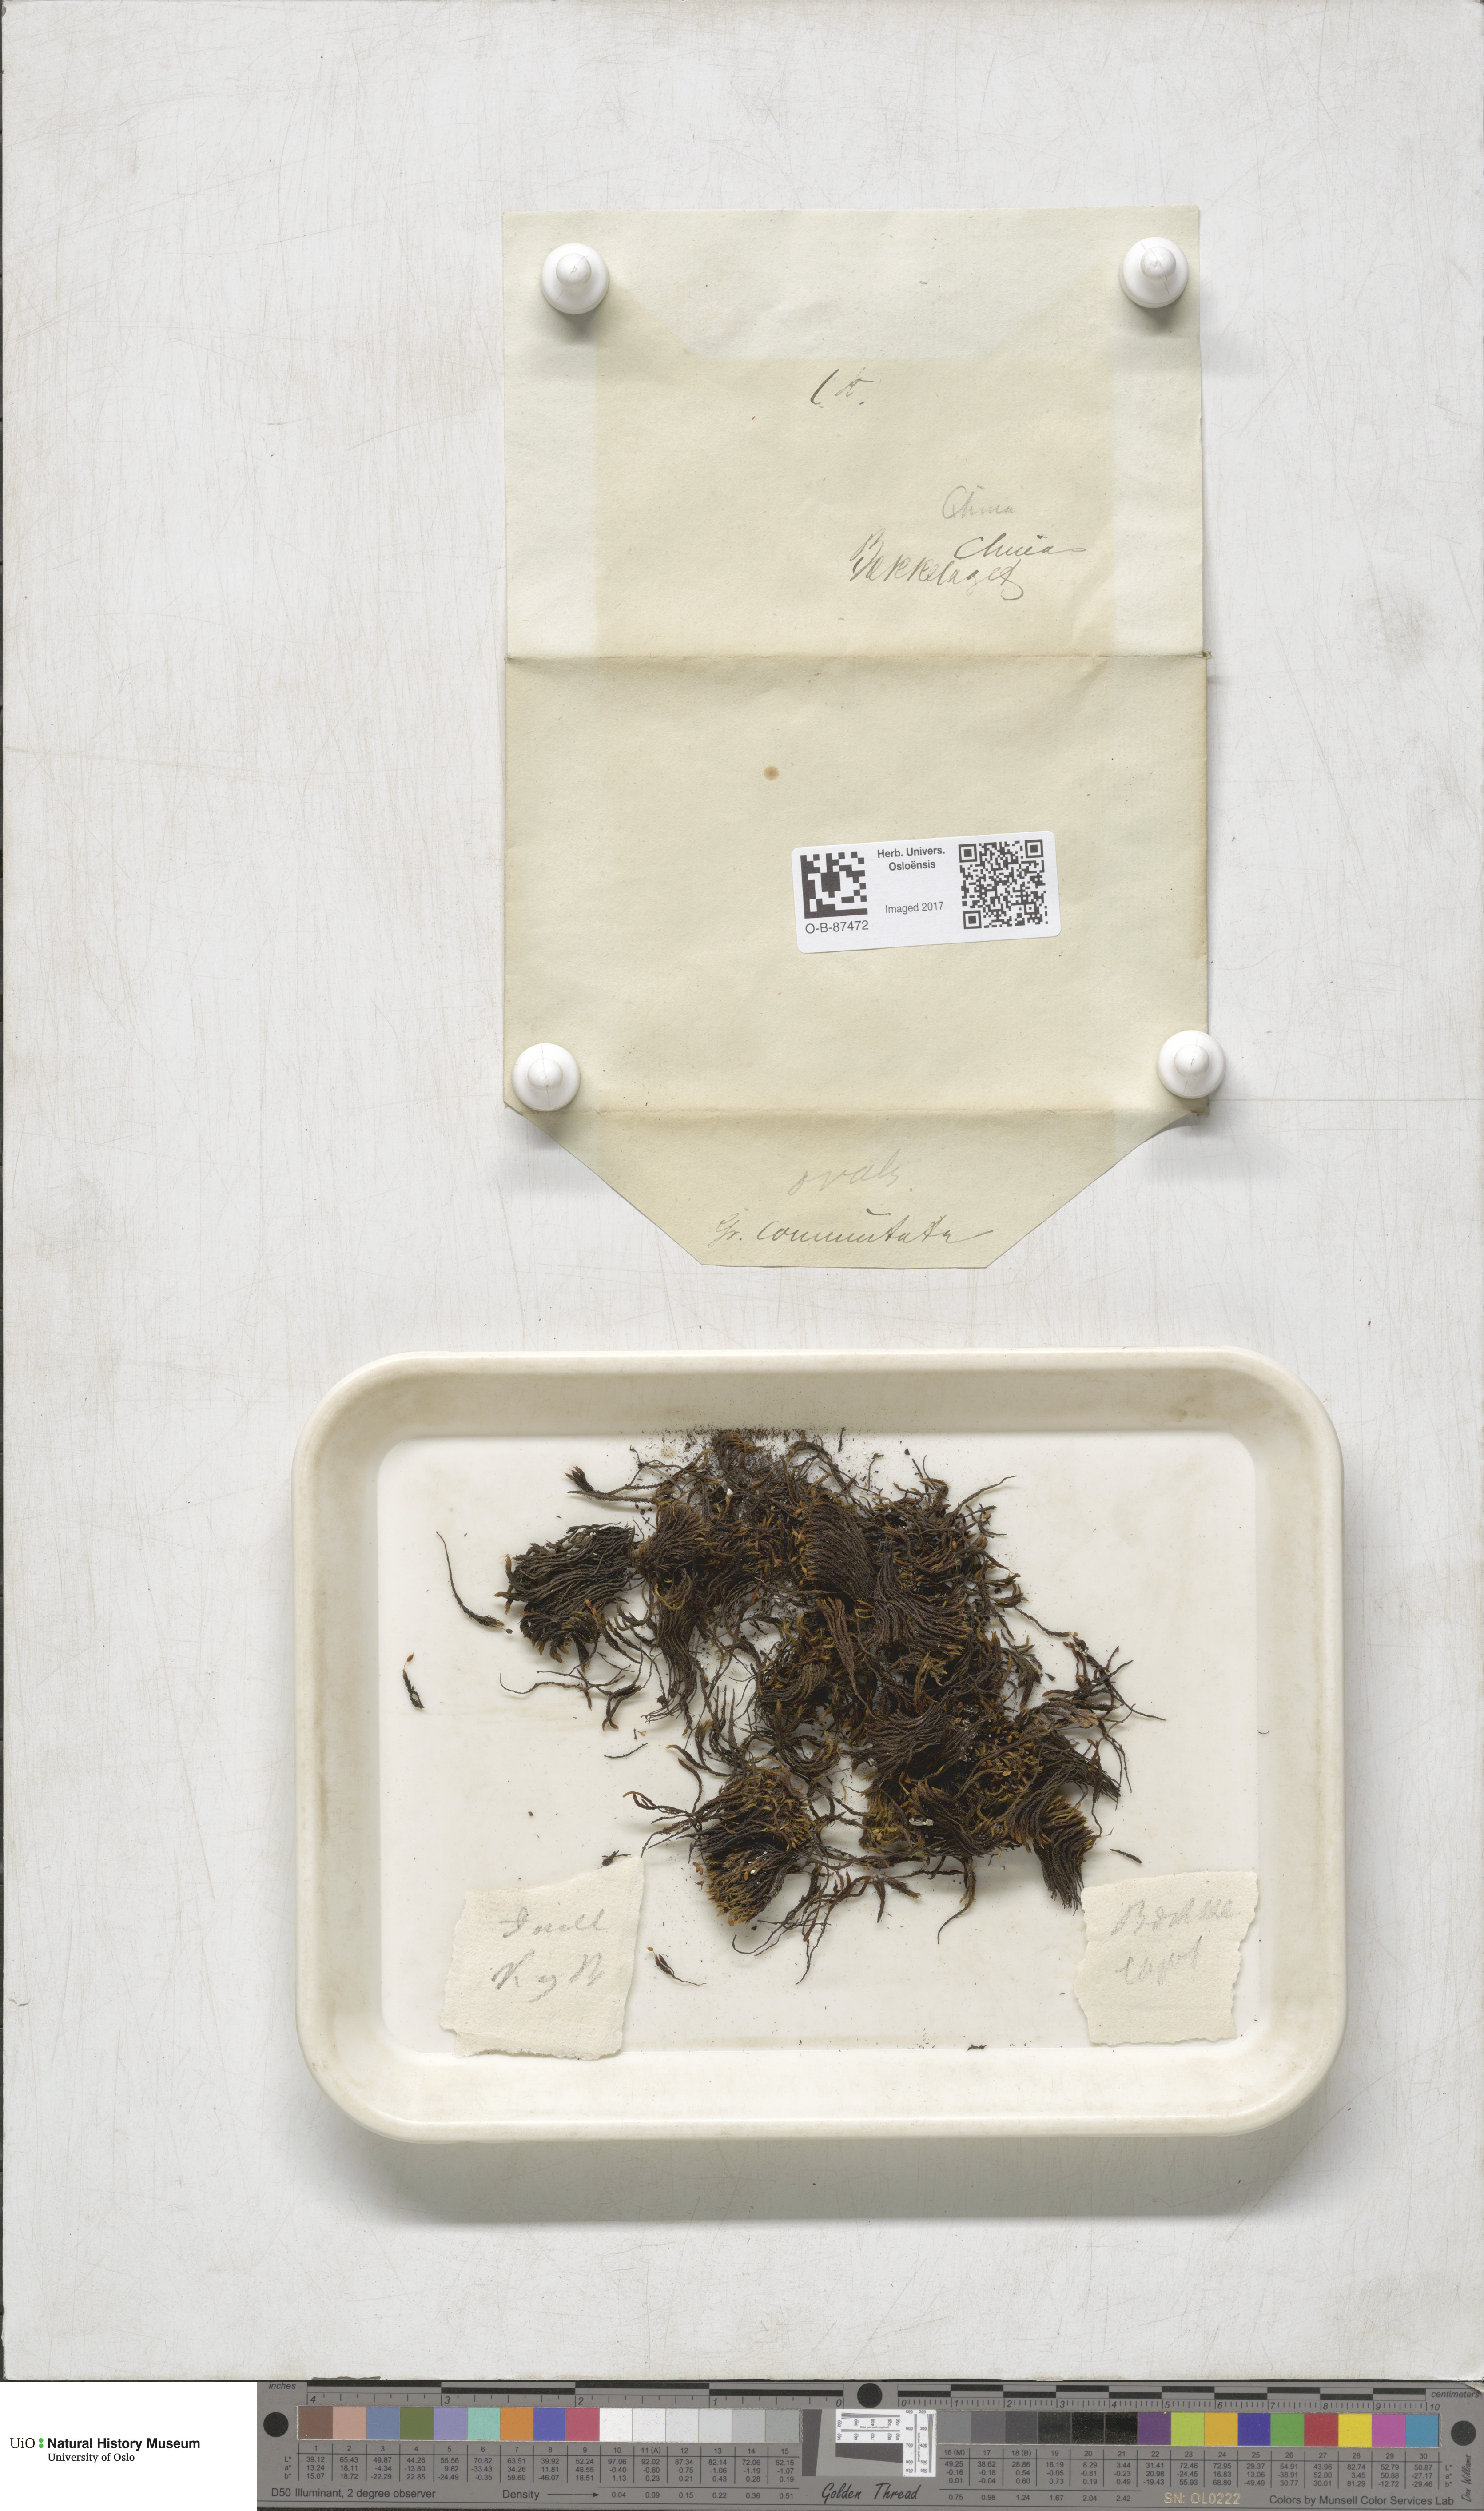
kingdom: Plantae
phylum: Bryophyta
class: Bryopsida
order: Grimmiales
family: Grimmiaceae
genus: Grimmia
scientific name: Grimmia ovalis
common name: Oval grimmia
